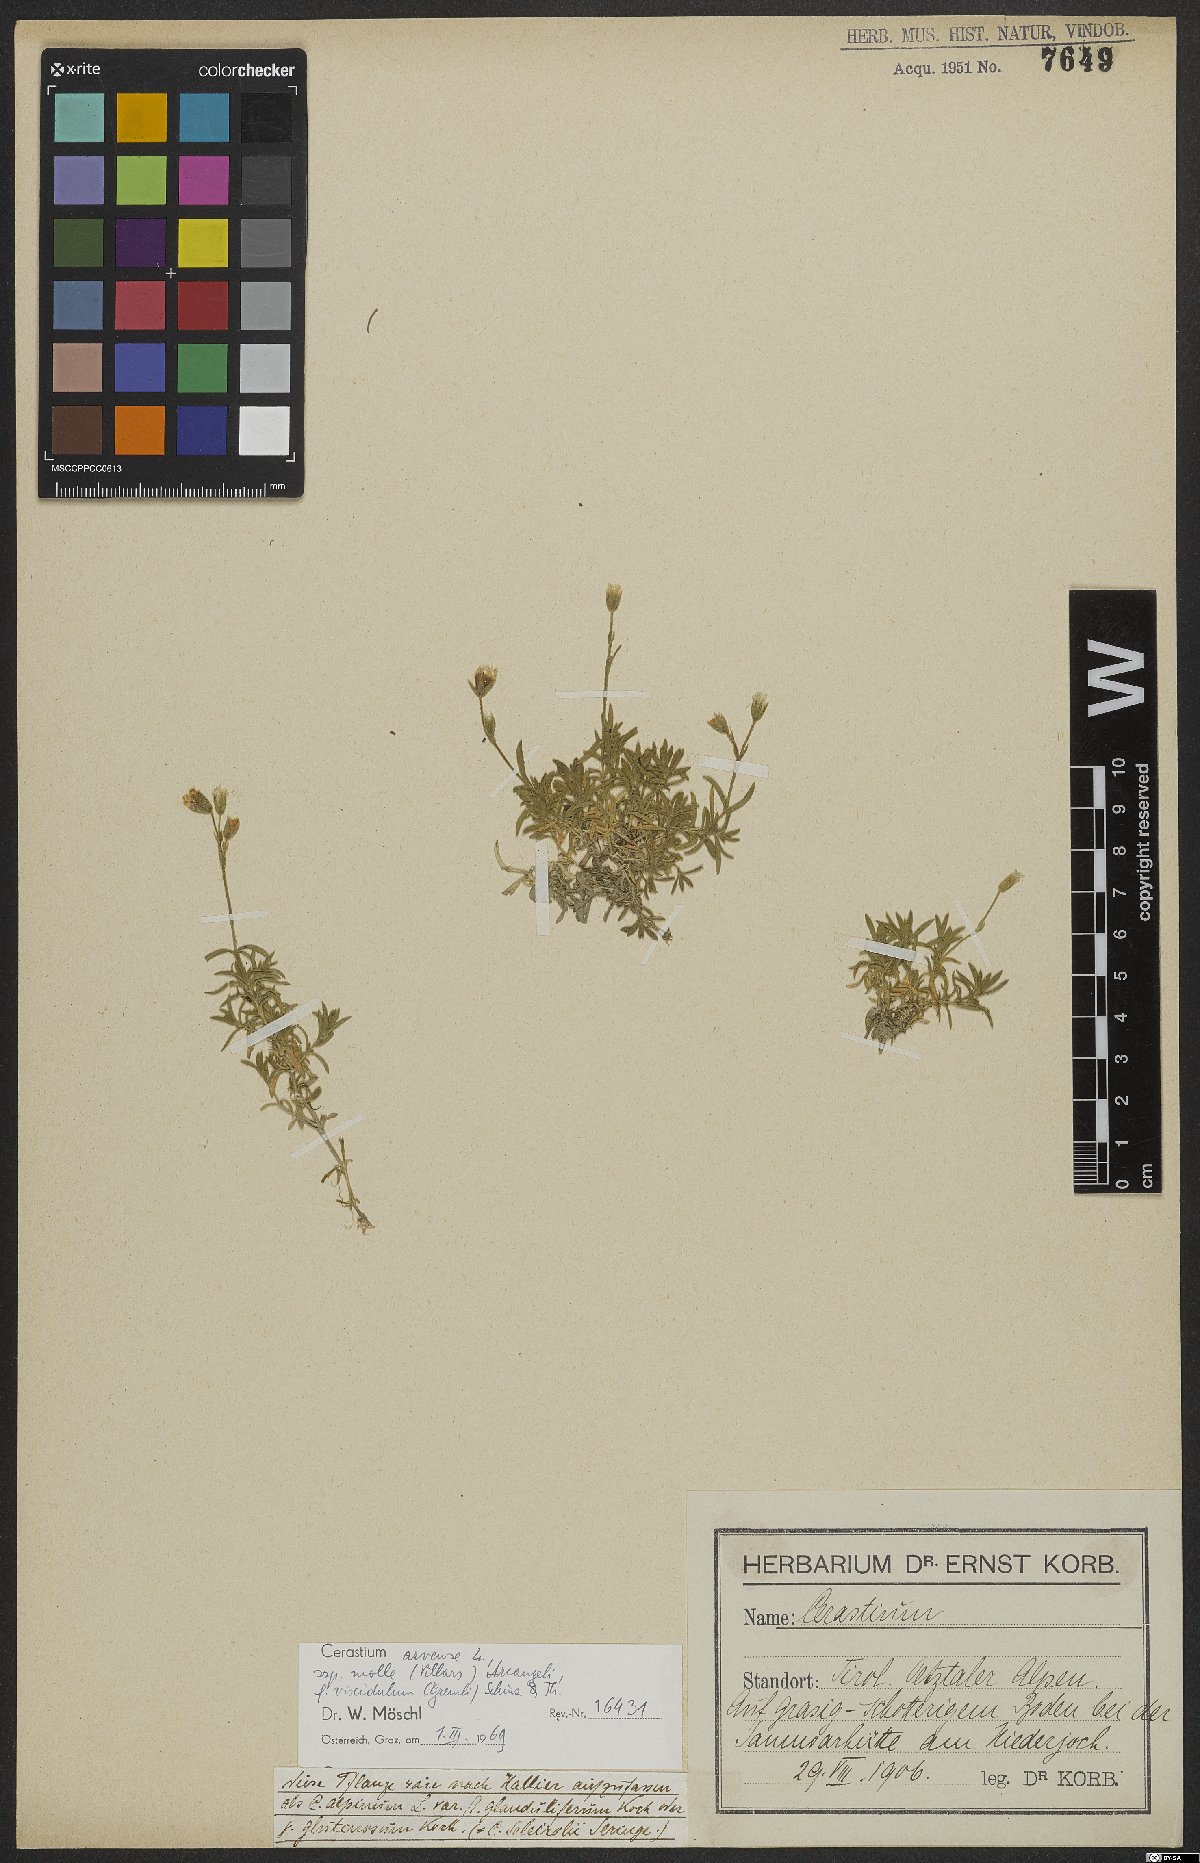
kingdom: Plantae
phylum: Tracheophyta
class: Magnoliopsida
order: Caryophyllales
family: Caryophyllaceae
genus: Cerastium
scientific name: Cerastium arvense
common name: Field mouse-ear
